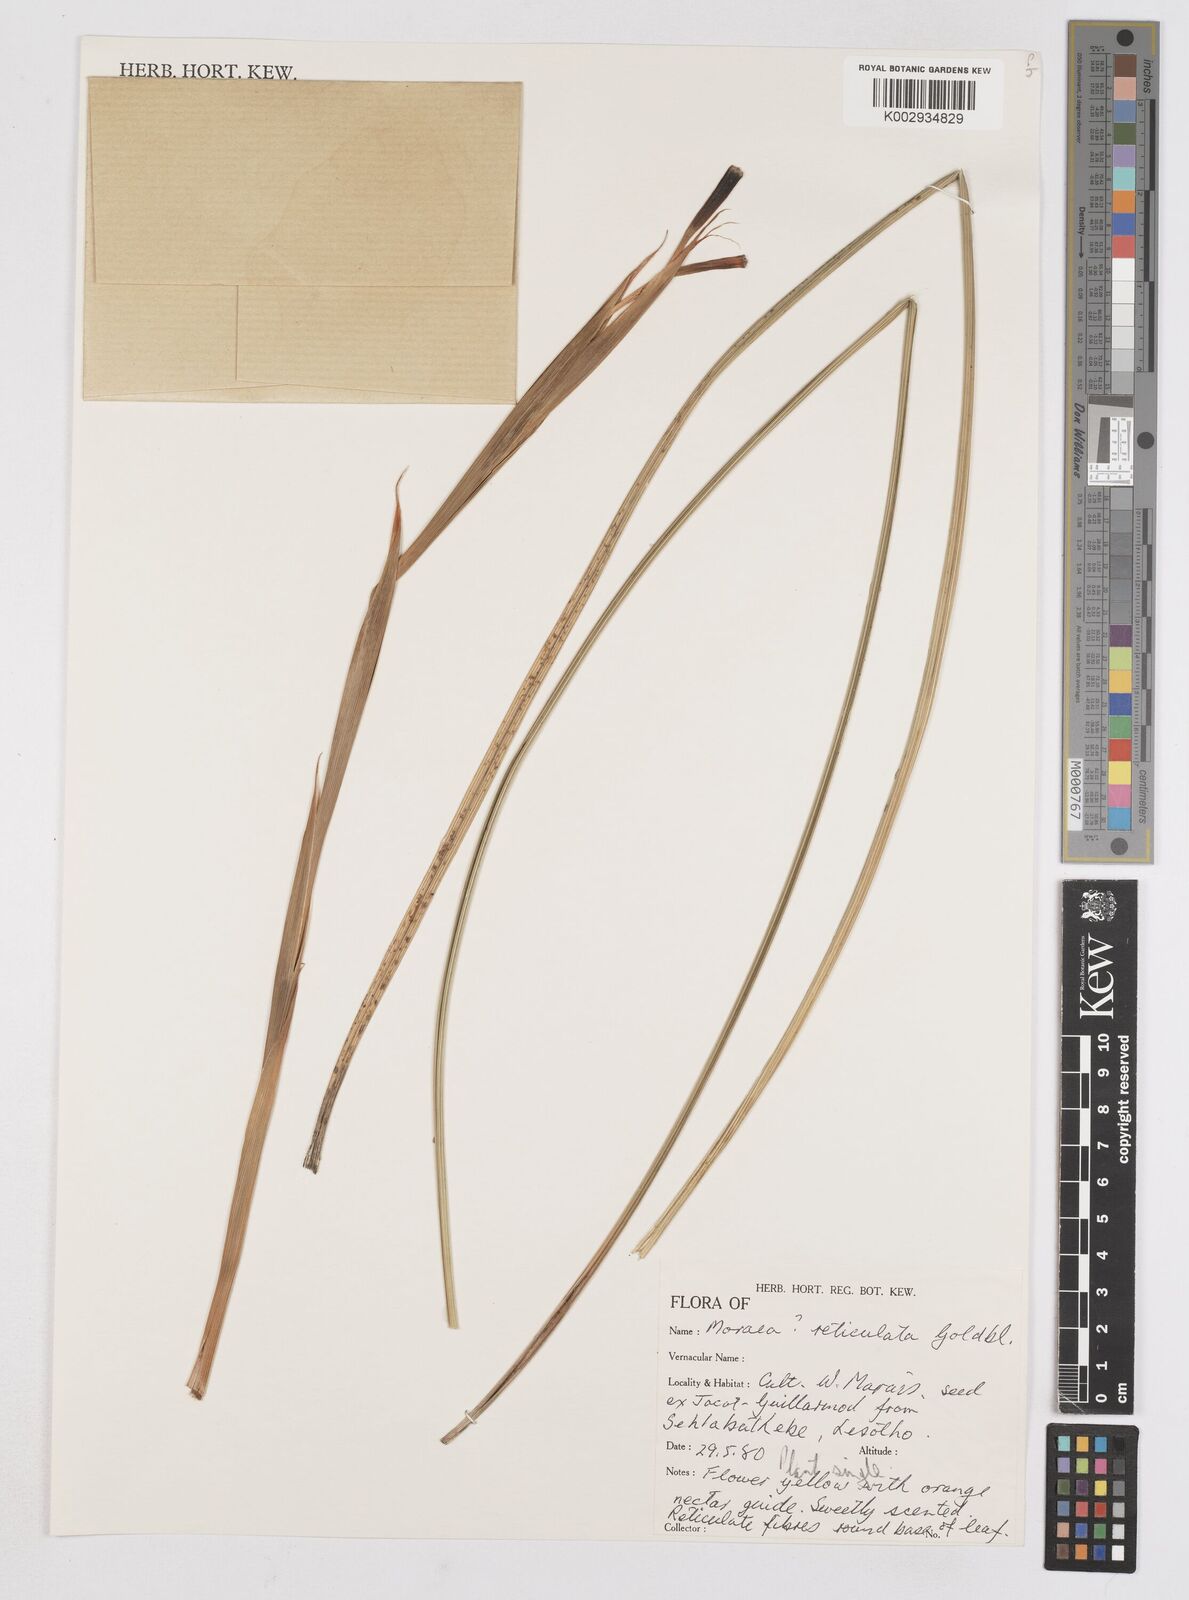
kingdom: Plantae
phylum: Tracheophyta
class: Liliopsida
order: Asparagales
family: Iridaceae
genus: Moraea
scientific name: Moraea robusta
